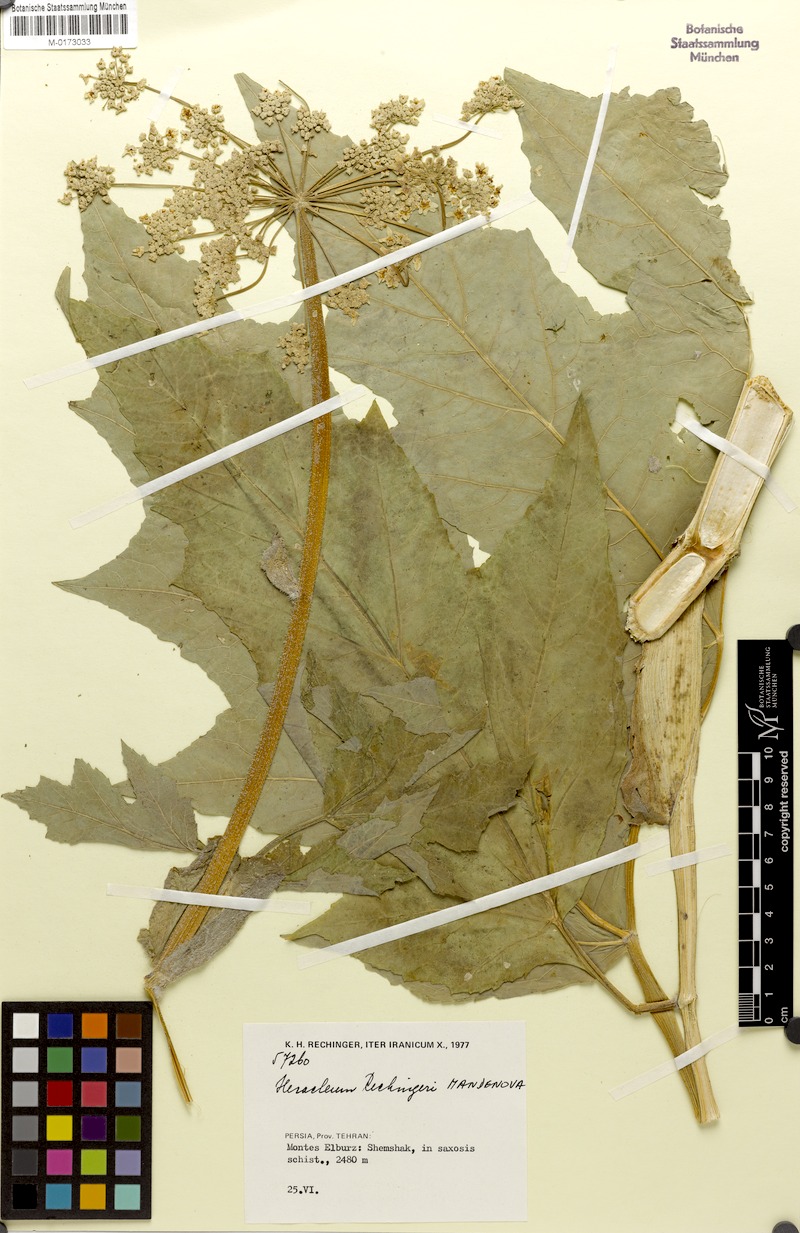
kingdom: Plantae
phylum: Tracheophyta
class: Magnoliopsida
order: Apiales
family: Apiaceae
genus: Heracleum
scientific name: Heracleum rechingeri
